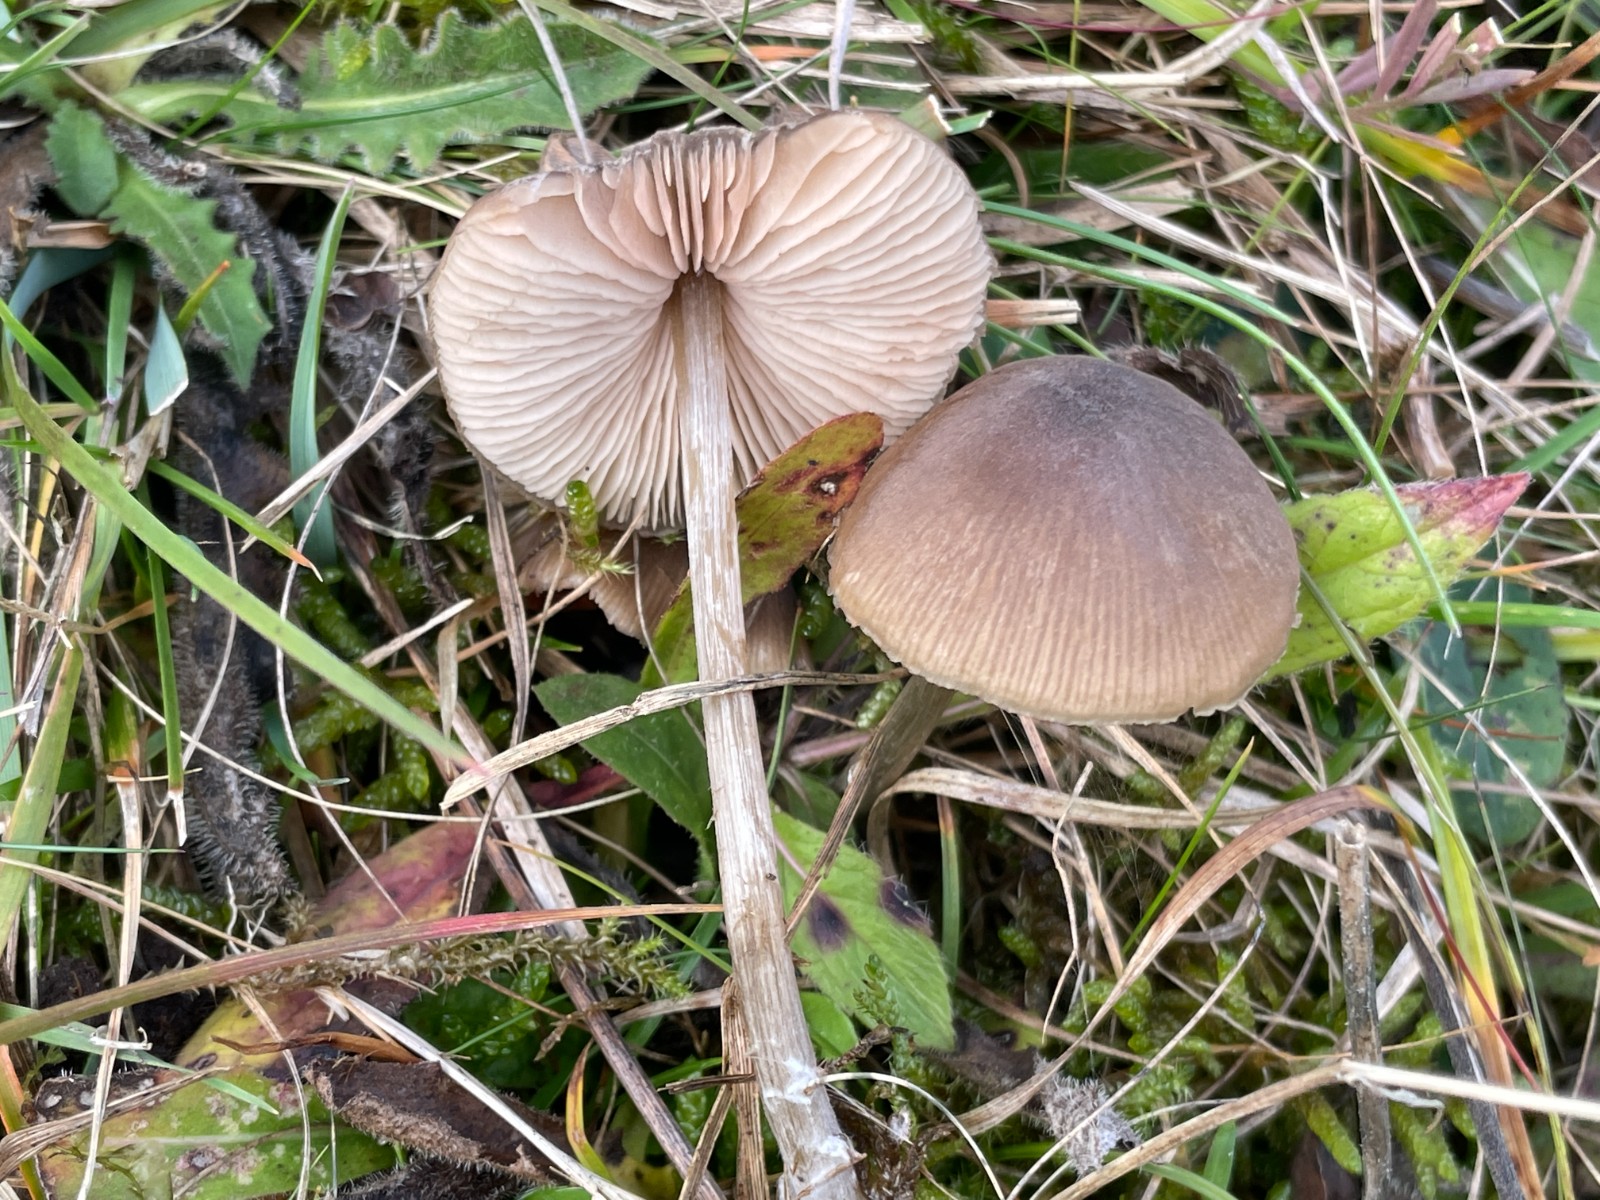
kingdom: Fungi
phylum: Basidiomycota
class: Agaricomycetes
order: Agaricales
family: Entolomataceae
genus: Entoloma
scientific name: Entoloma
